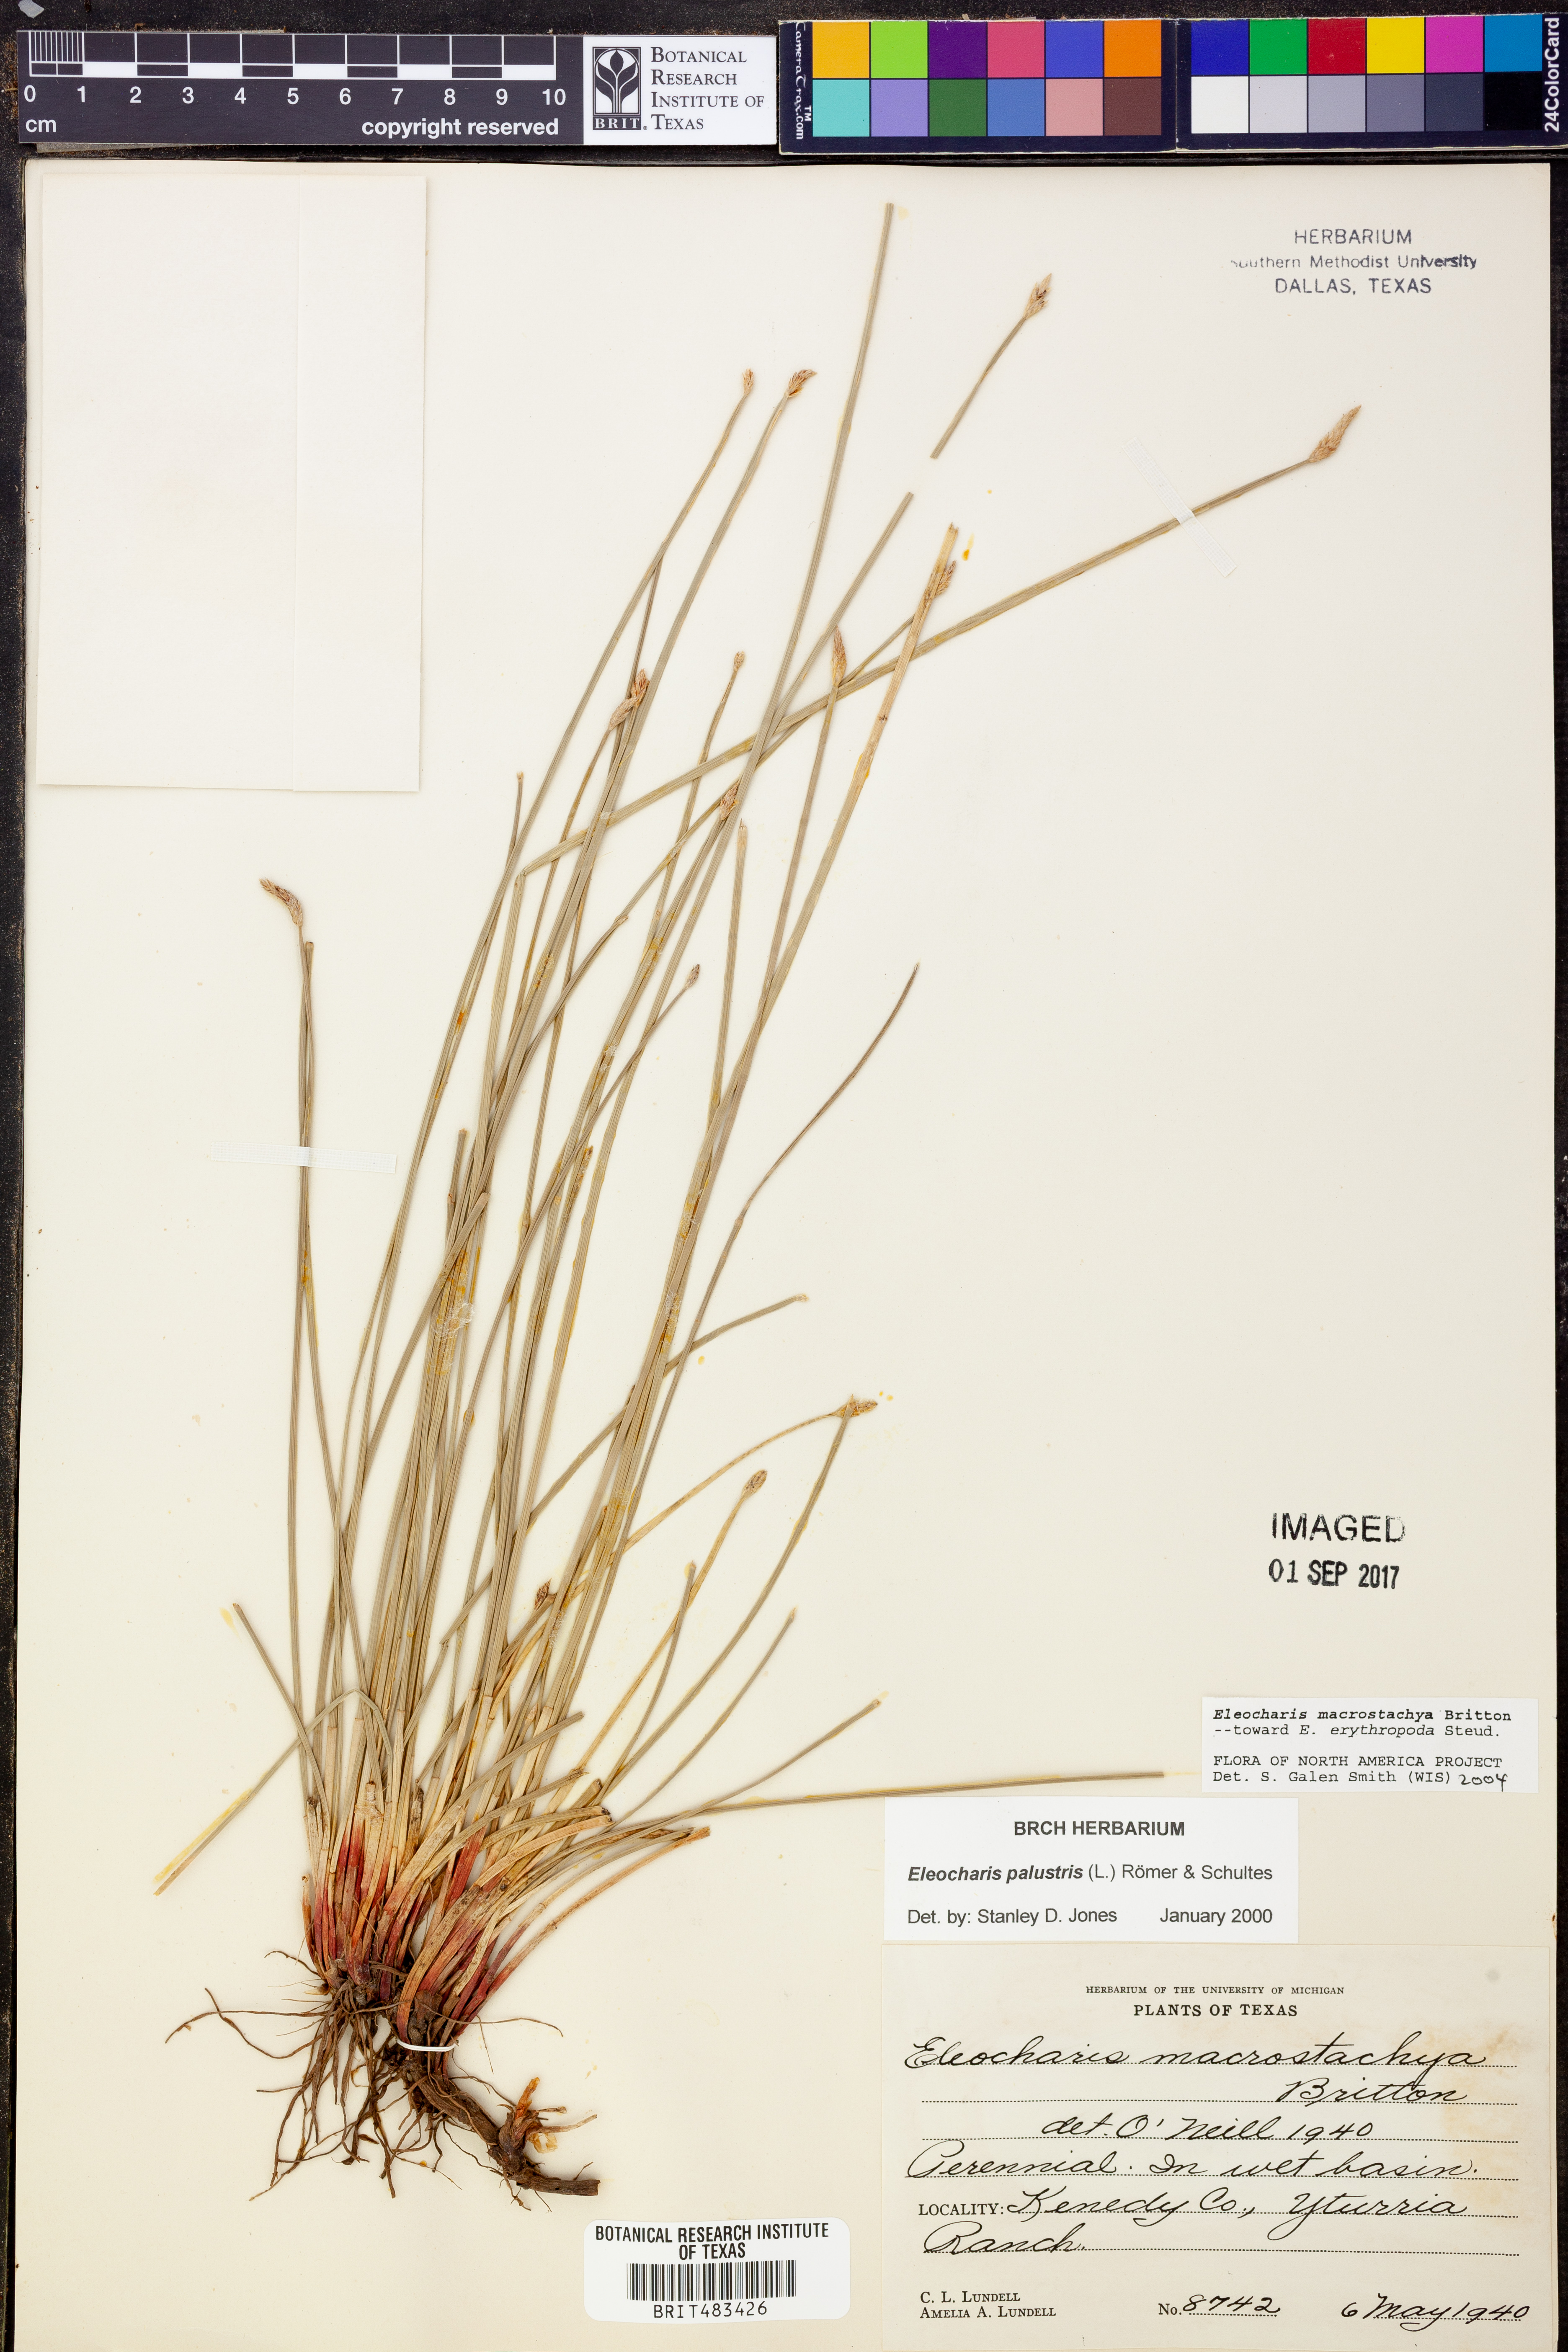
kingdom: Plantae
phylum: Tracheophyta
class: Liliopsida
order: Poales
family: Cyperaceae
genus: Eleocharis
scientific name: Eleocharis macrostachya
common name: Pale spikerush
